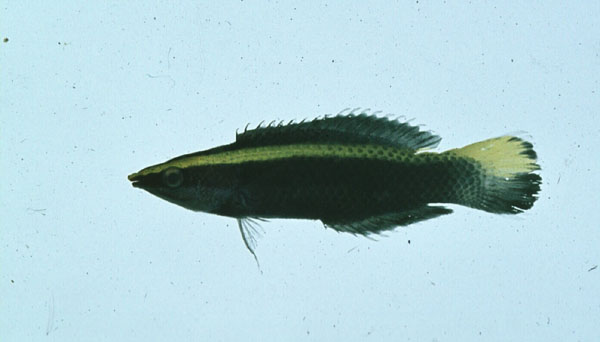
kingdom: Animalia
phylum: Chordata
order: Perciformes
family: Labridae
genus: Labroides
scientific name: Labroides bicolor
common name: Bicolor cleaner wrasse
